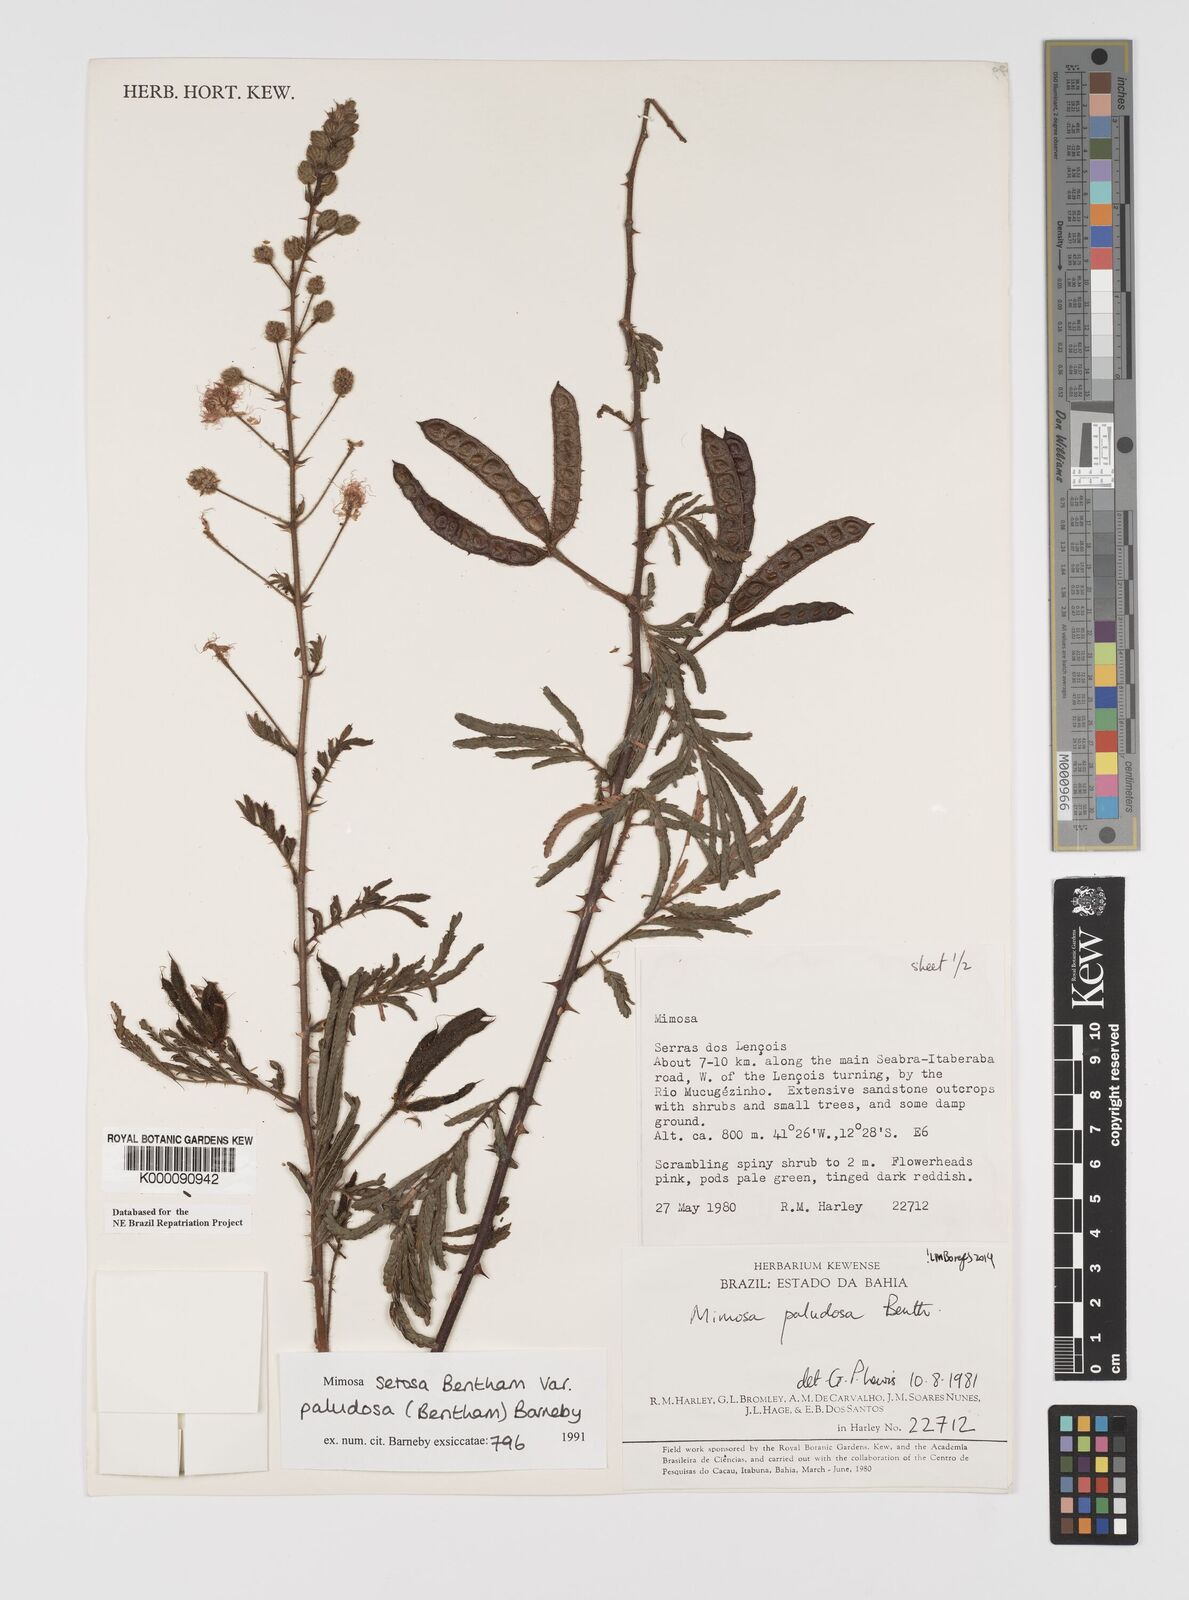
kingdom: Plantae
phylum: Tracheophyta
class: Magnoliopsida
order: Fabales
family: Fabaceae
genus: Mimosa
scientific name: Mimosa paludosa
